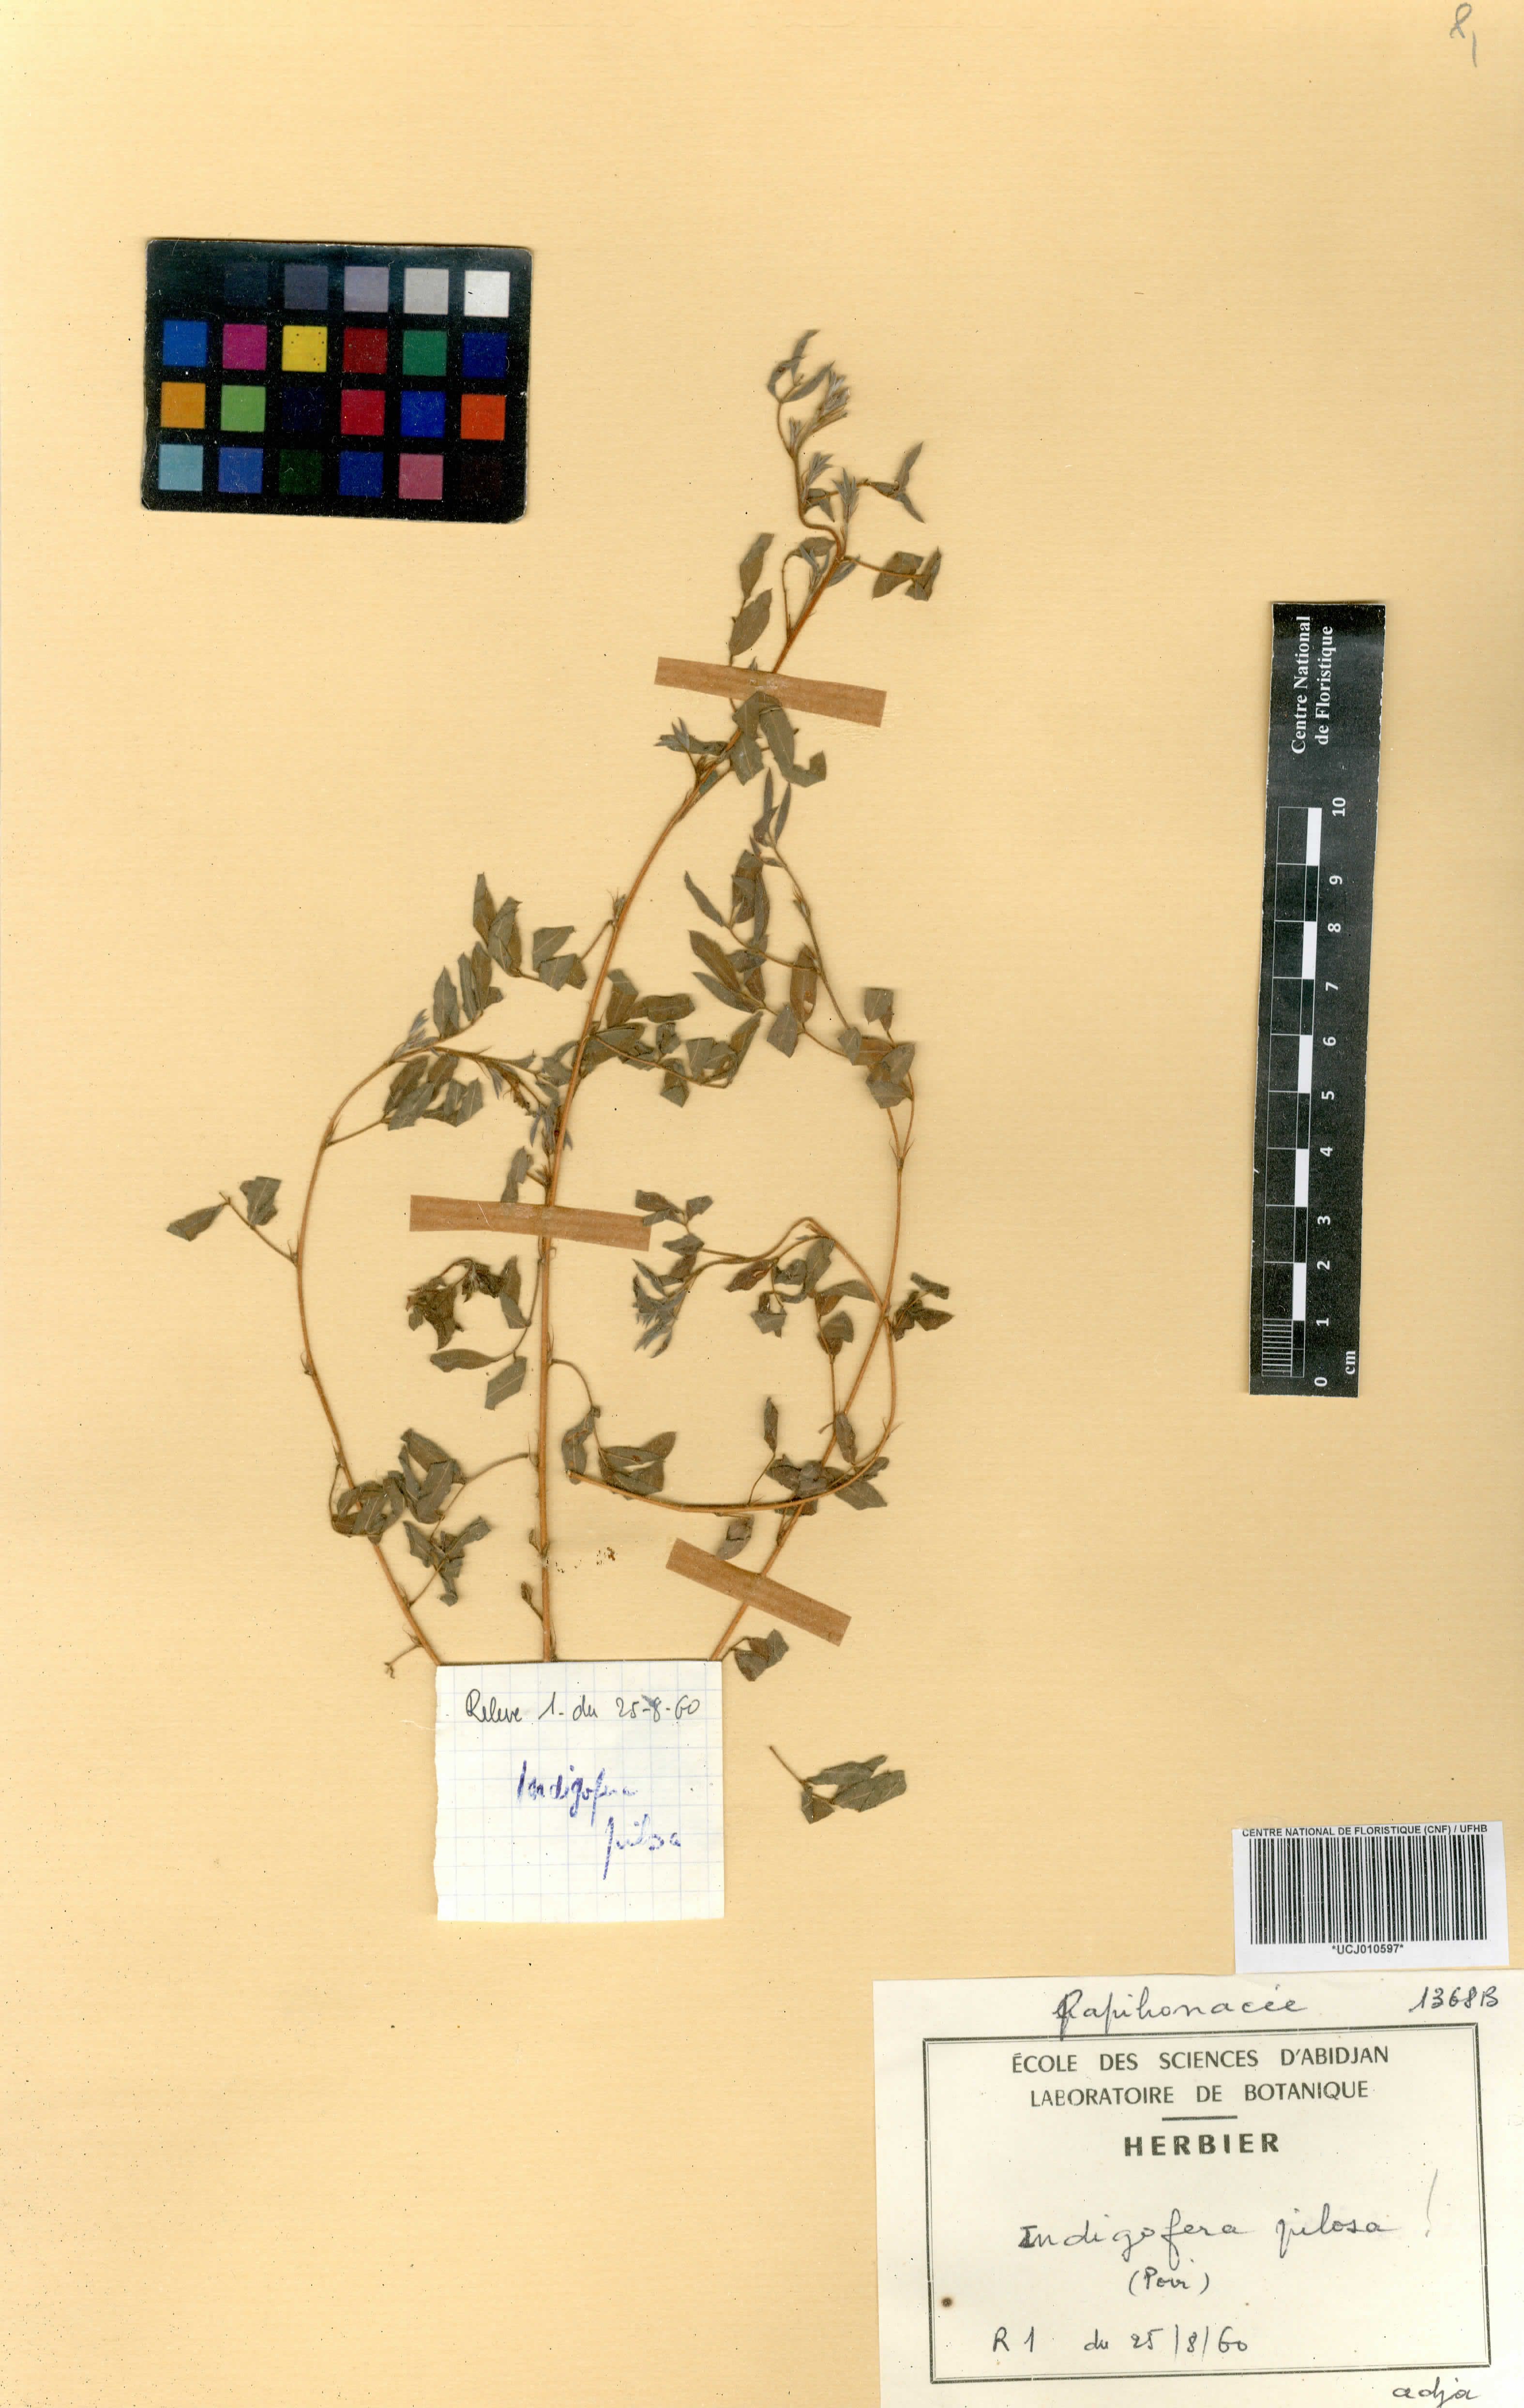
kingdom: Plantae
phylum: Tracheophyta
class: Magnoliopsida
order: Fabales
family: Fabaceae
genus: Indigofera
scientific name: Indigofera pilosa
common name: Softhairy indigo
